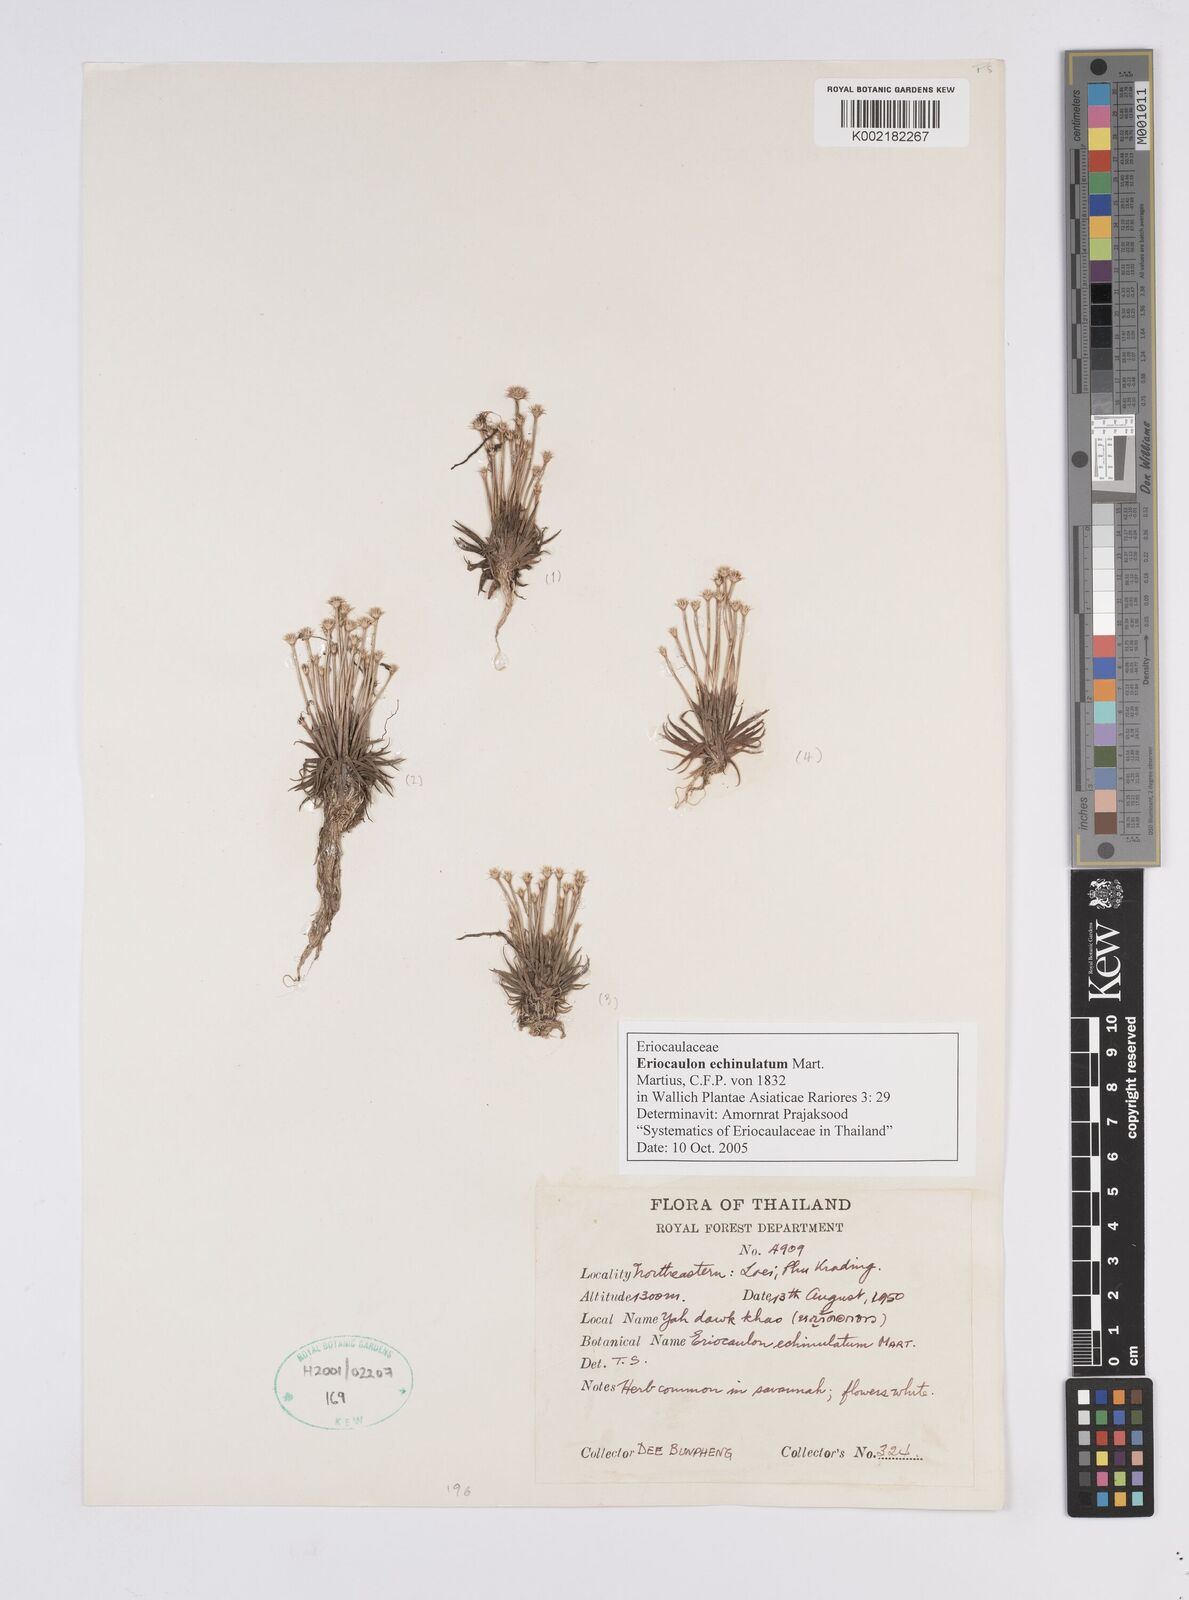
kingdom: Plantae
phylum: Tracheophyta
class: Liliopsida
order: Poales
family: Eriocaulaceae
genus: Eriocaulon
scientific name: Eriocaulon echinulatum
